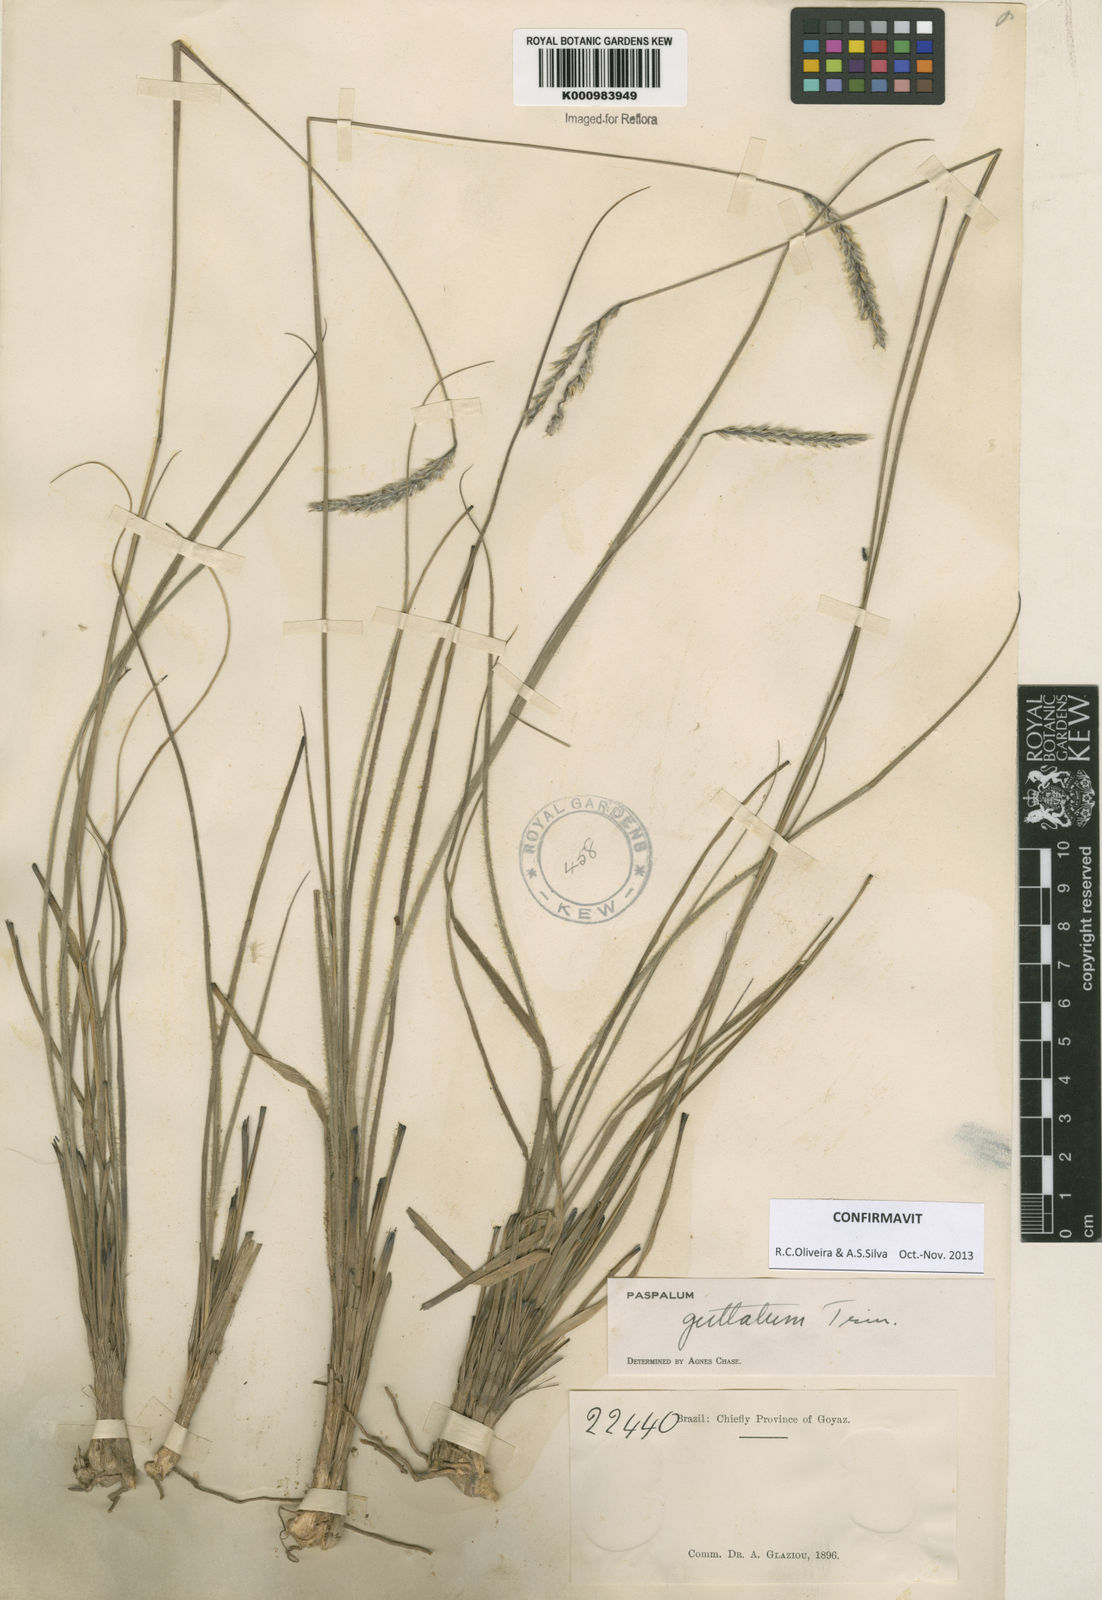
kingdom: Plantae
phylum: Tracheophyta
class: Liliopsida
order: Poales
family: Poaceae
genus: Paspalum
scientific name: Paspalum guttatum
